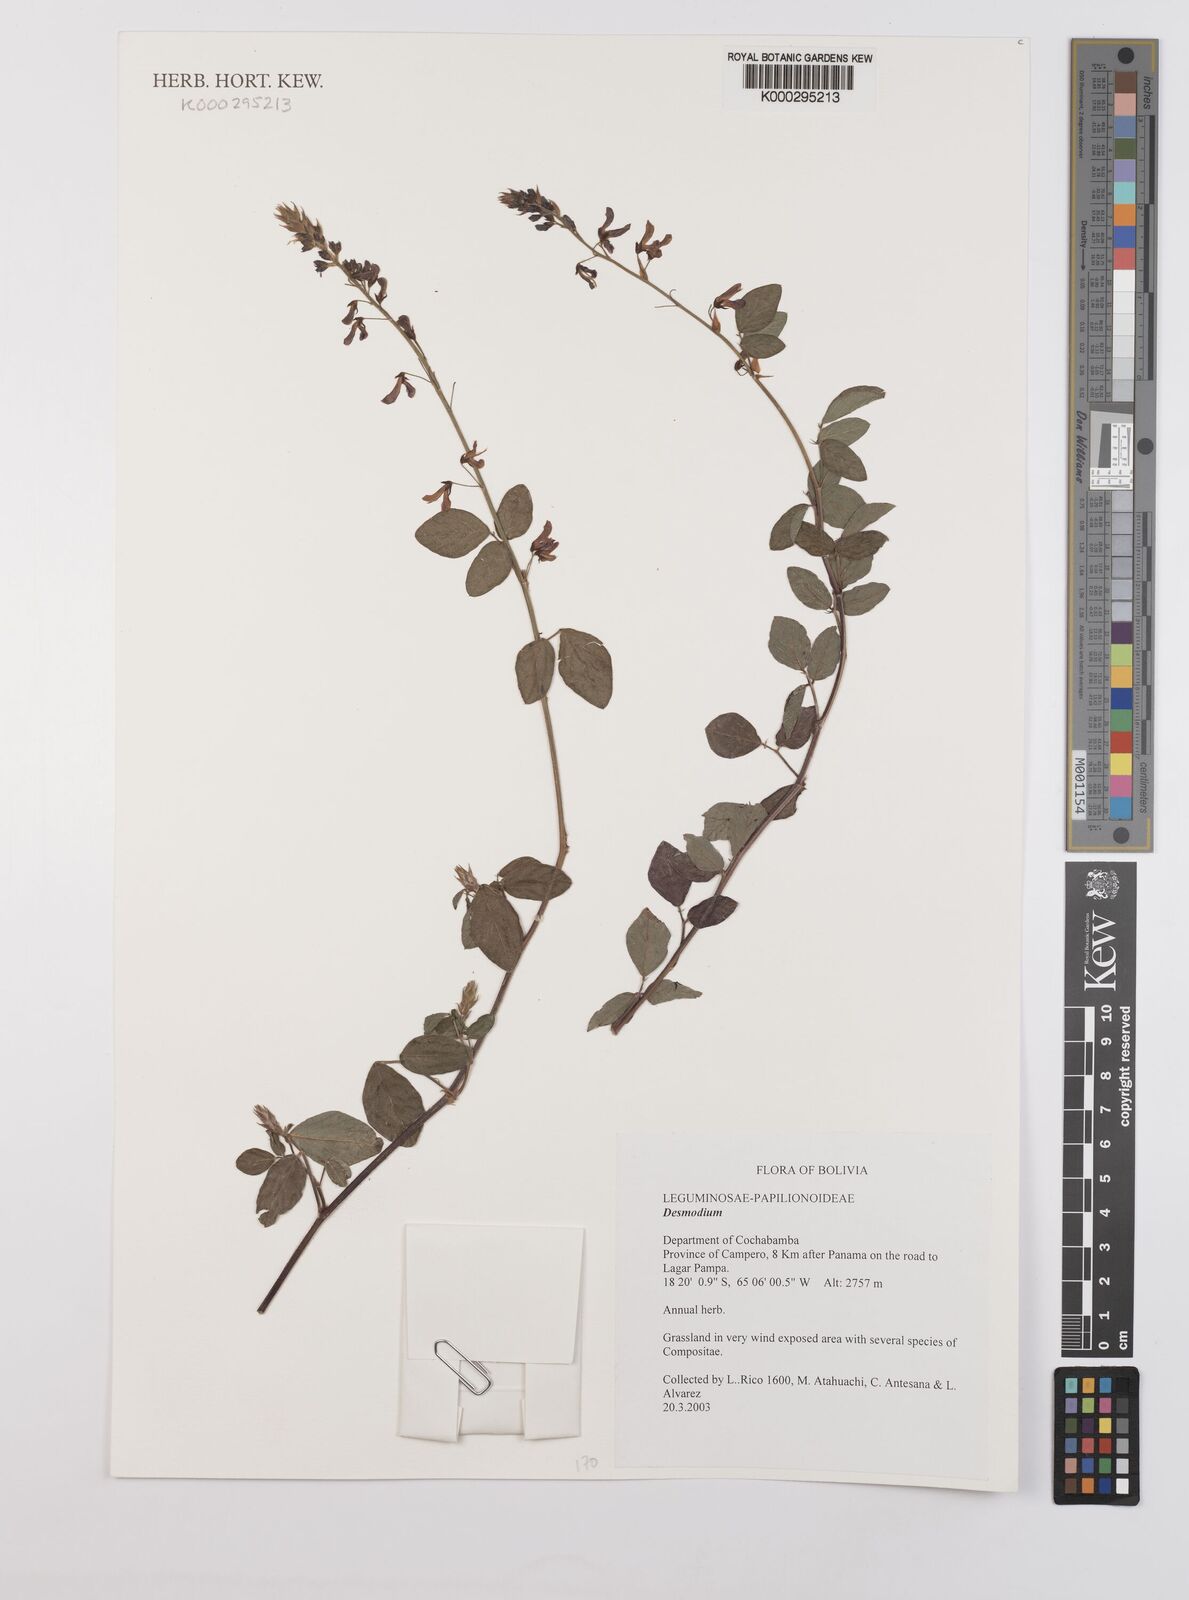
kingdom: Plantae
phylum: Tracheophyta
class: Magnoliopsida
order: Fabales
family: Fabaceae
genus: Desmodium
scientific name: Desmodium
